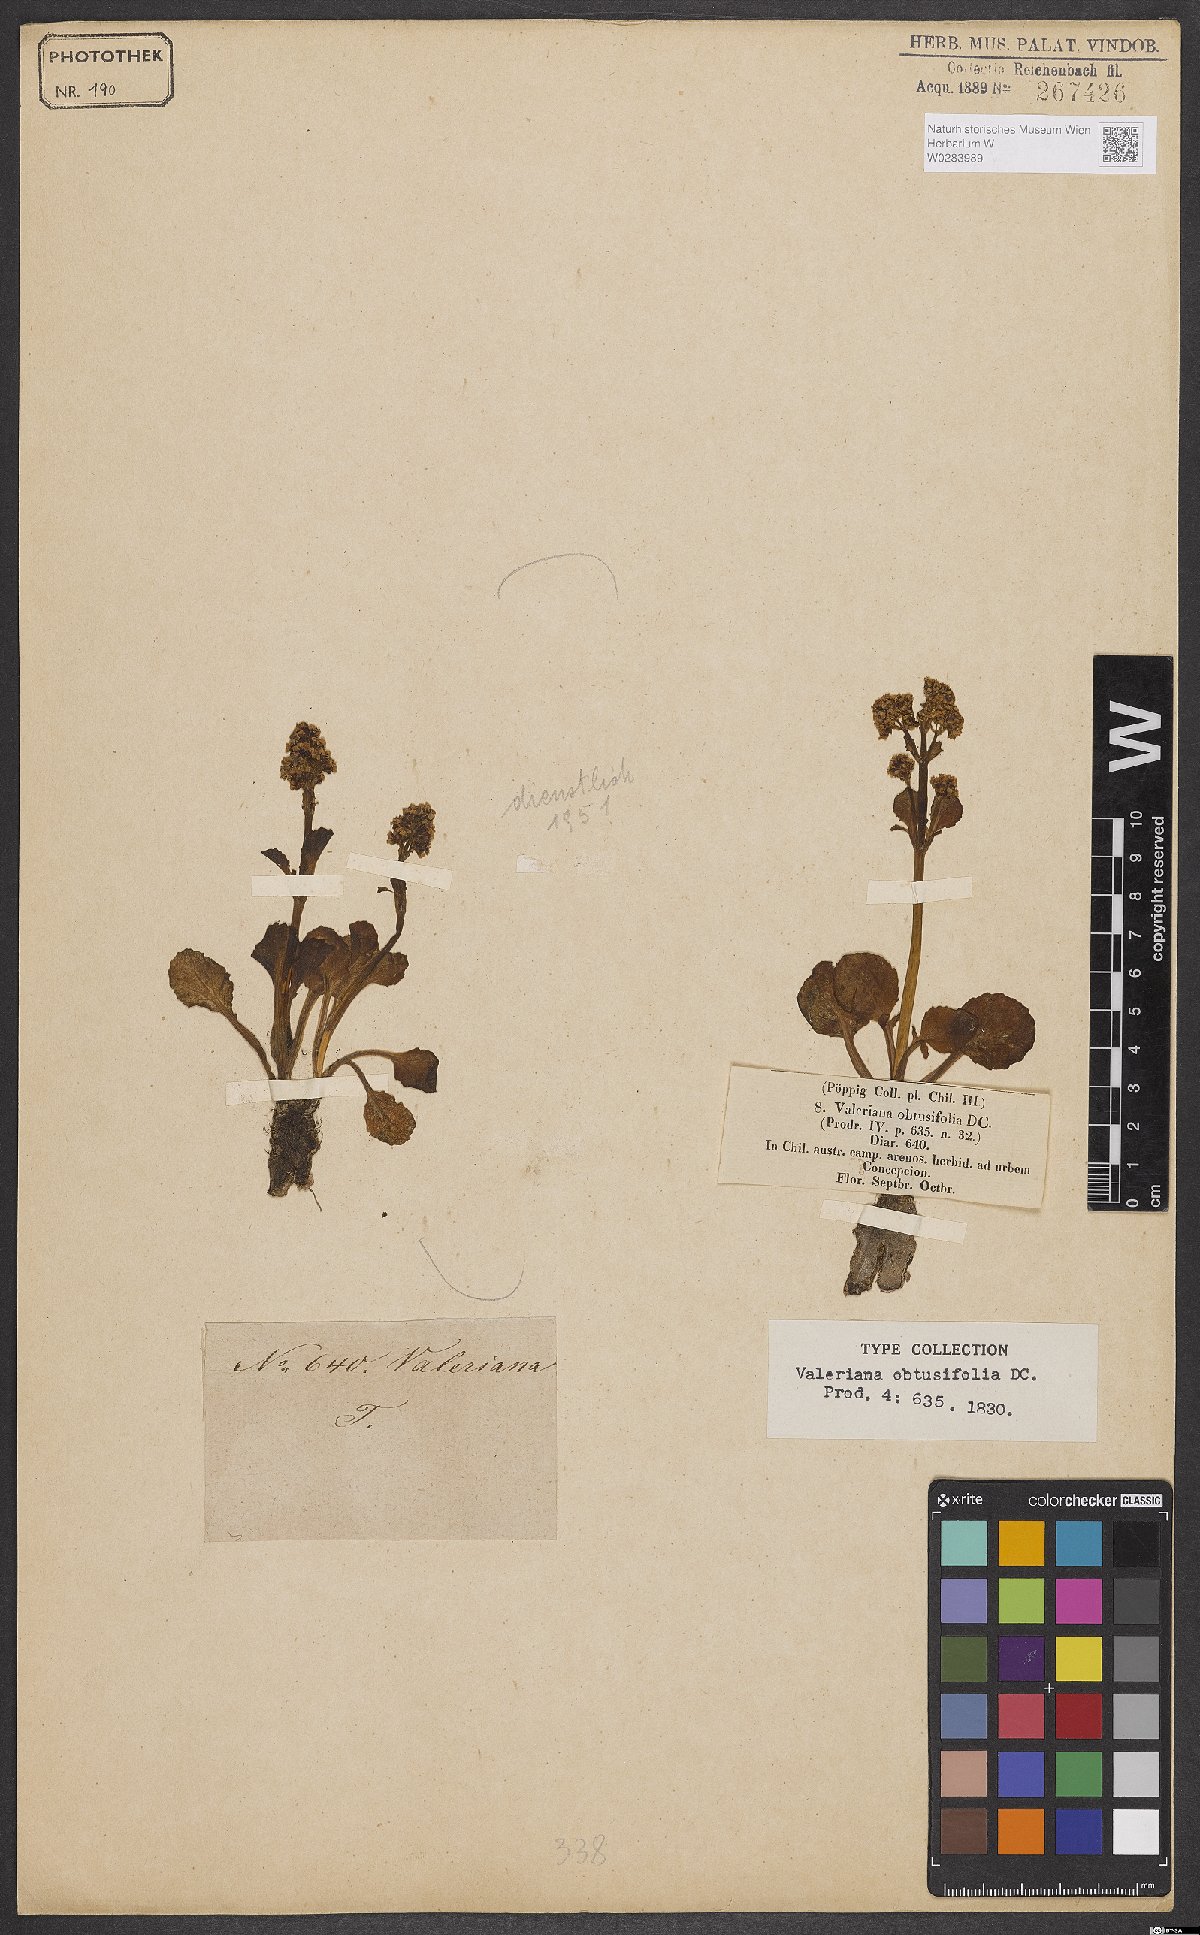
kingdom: Plantae
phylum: Tracheophyta
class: Magnoliopsida
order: Dipsacales
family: Caprifoliaceae
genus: Valeriana
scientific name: Valeriana obtusifolia
